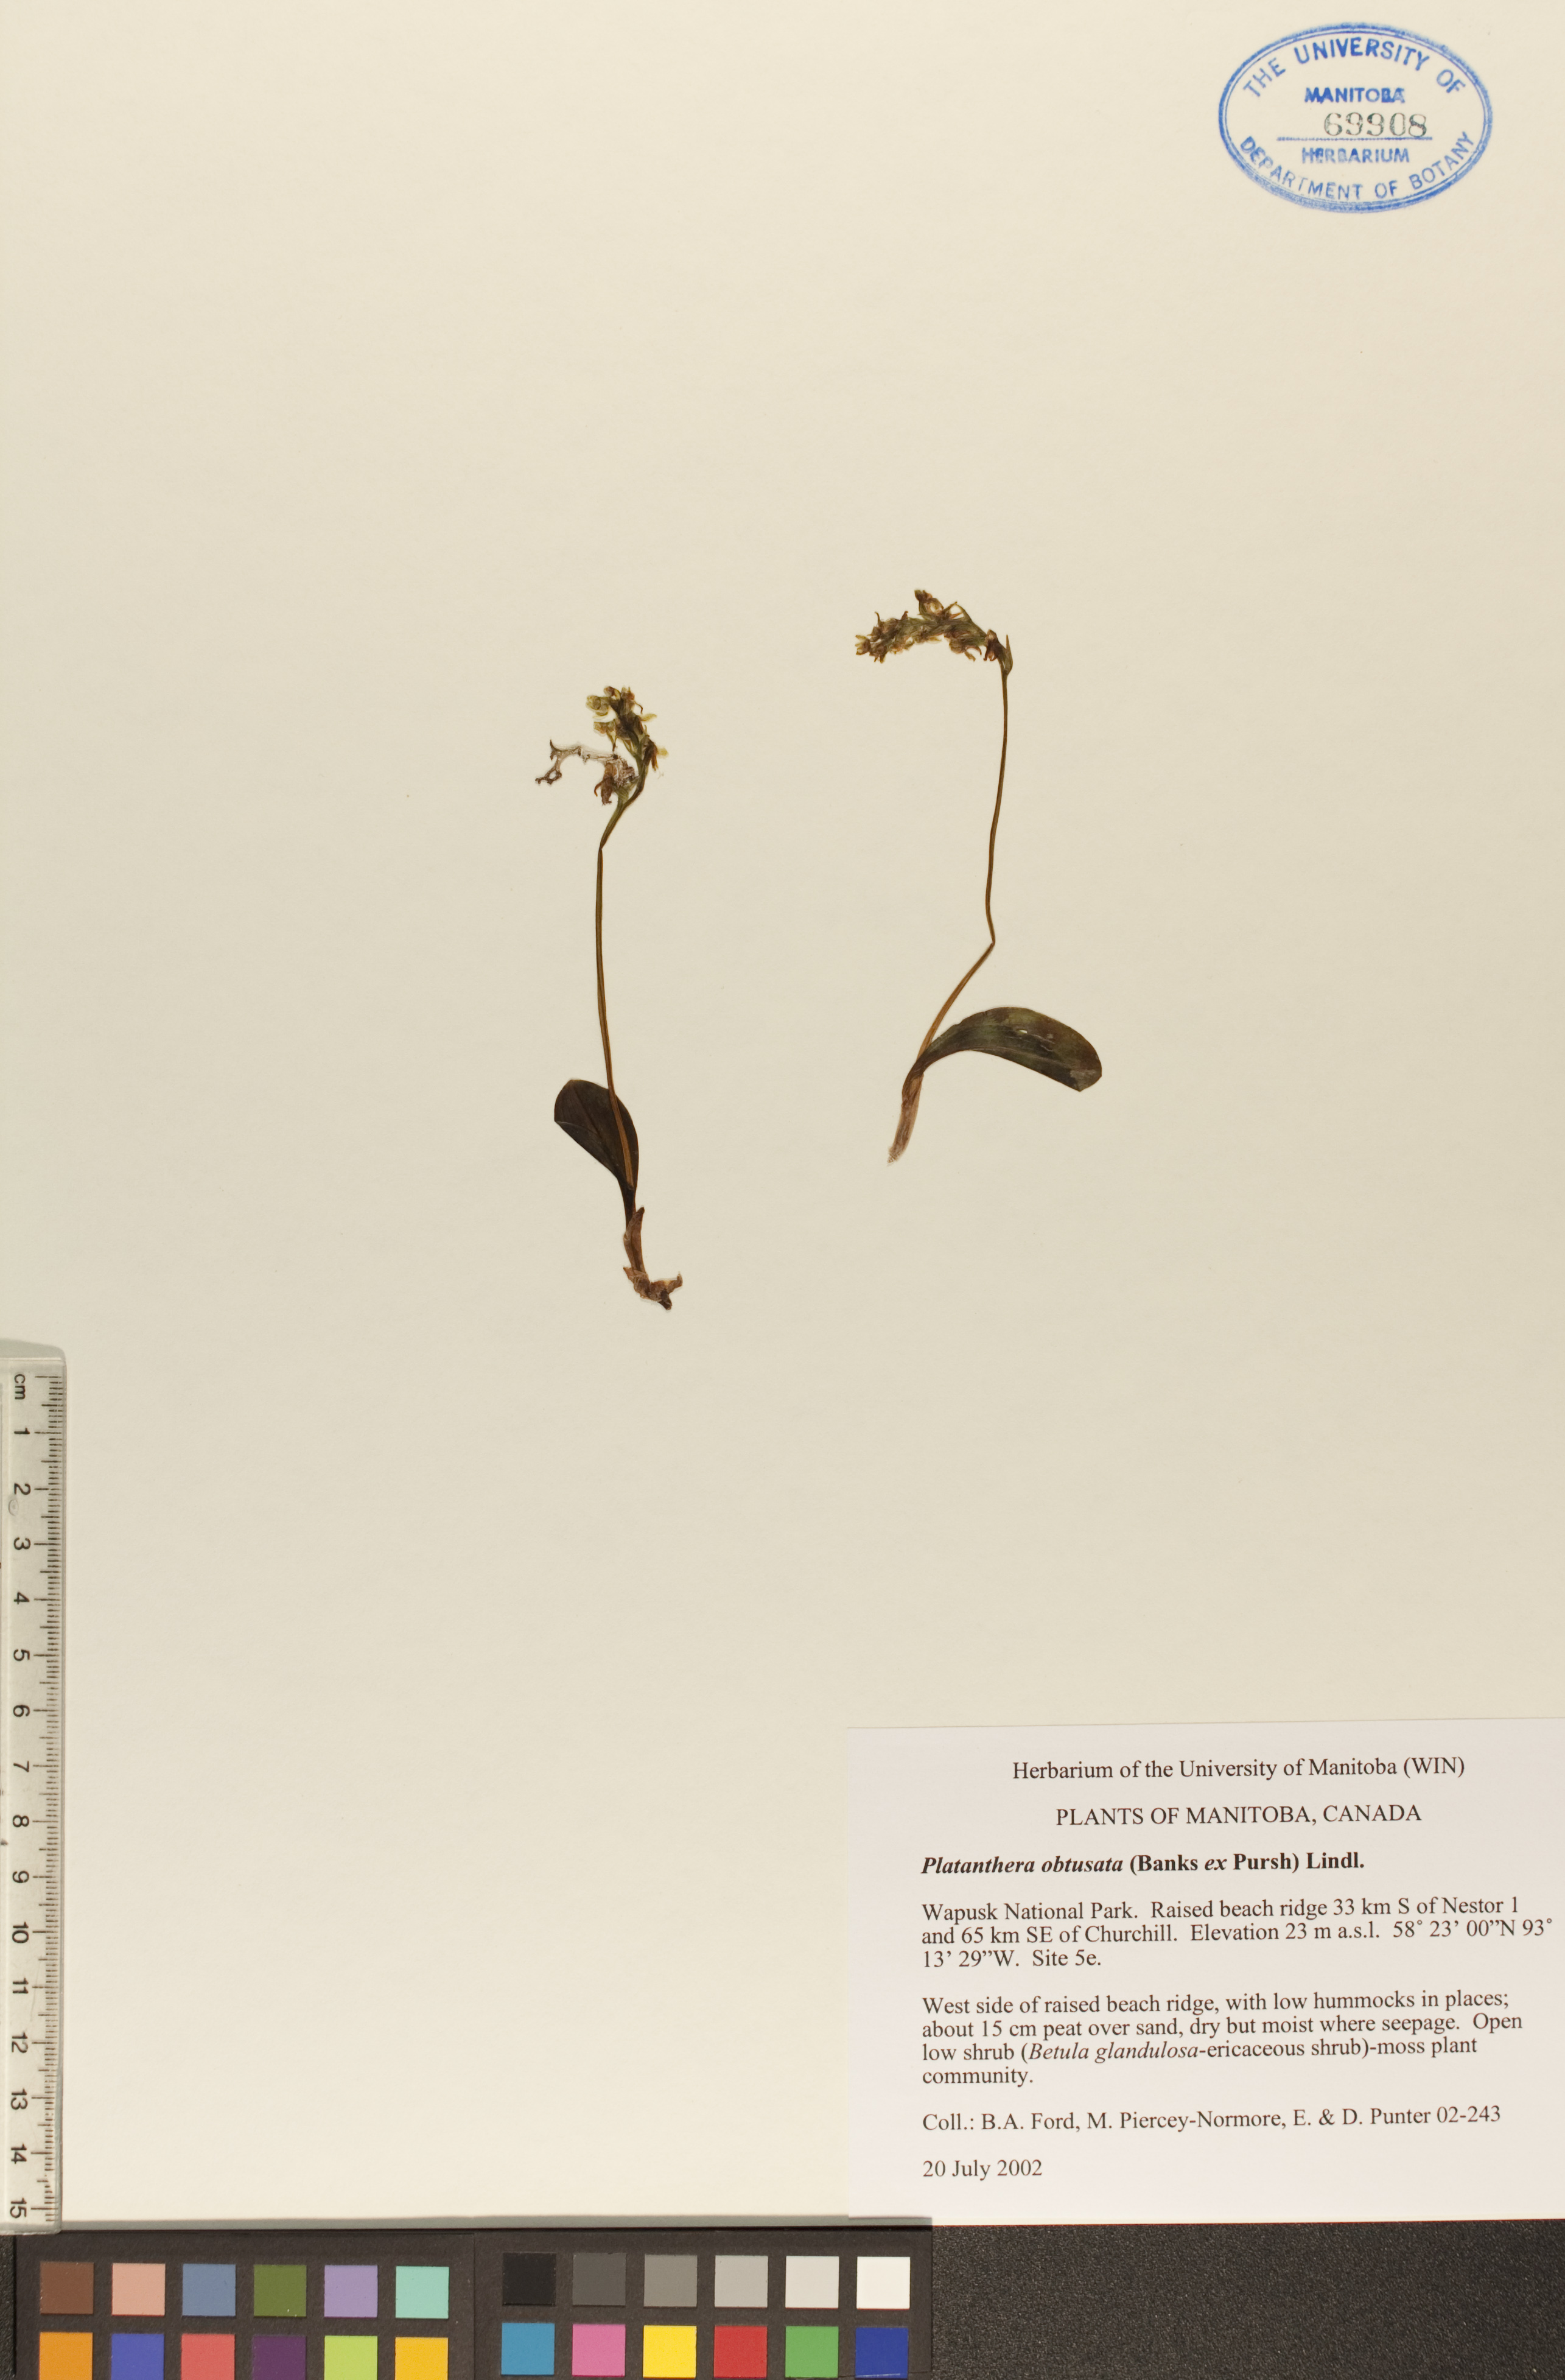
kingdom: Plantae
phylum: Tracheophyta
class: Liliopsida
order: Asparagales
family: Orchidaceae
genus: Platanthera
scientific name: Platanthera obtusata
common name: Blunt bog orchid
